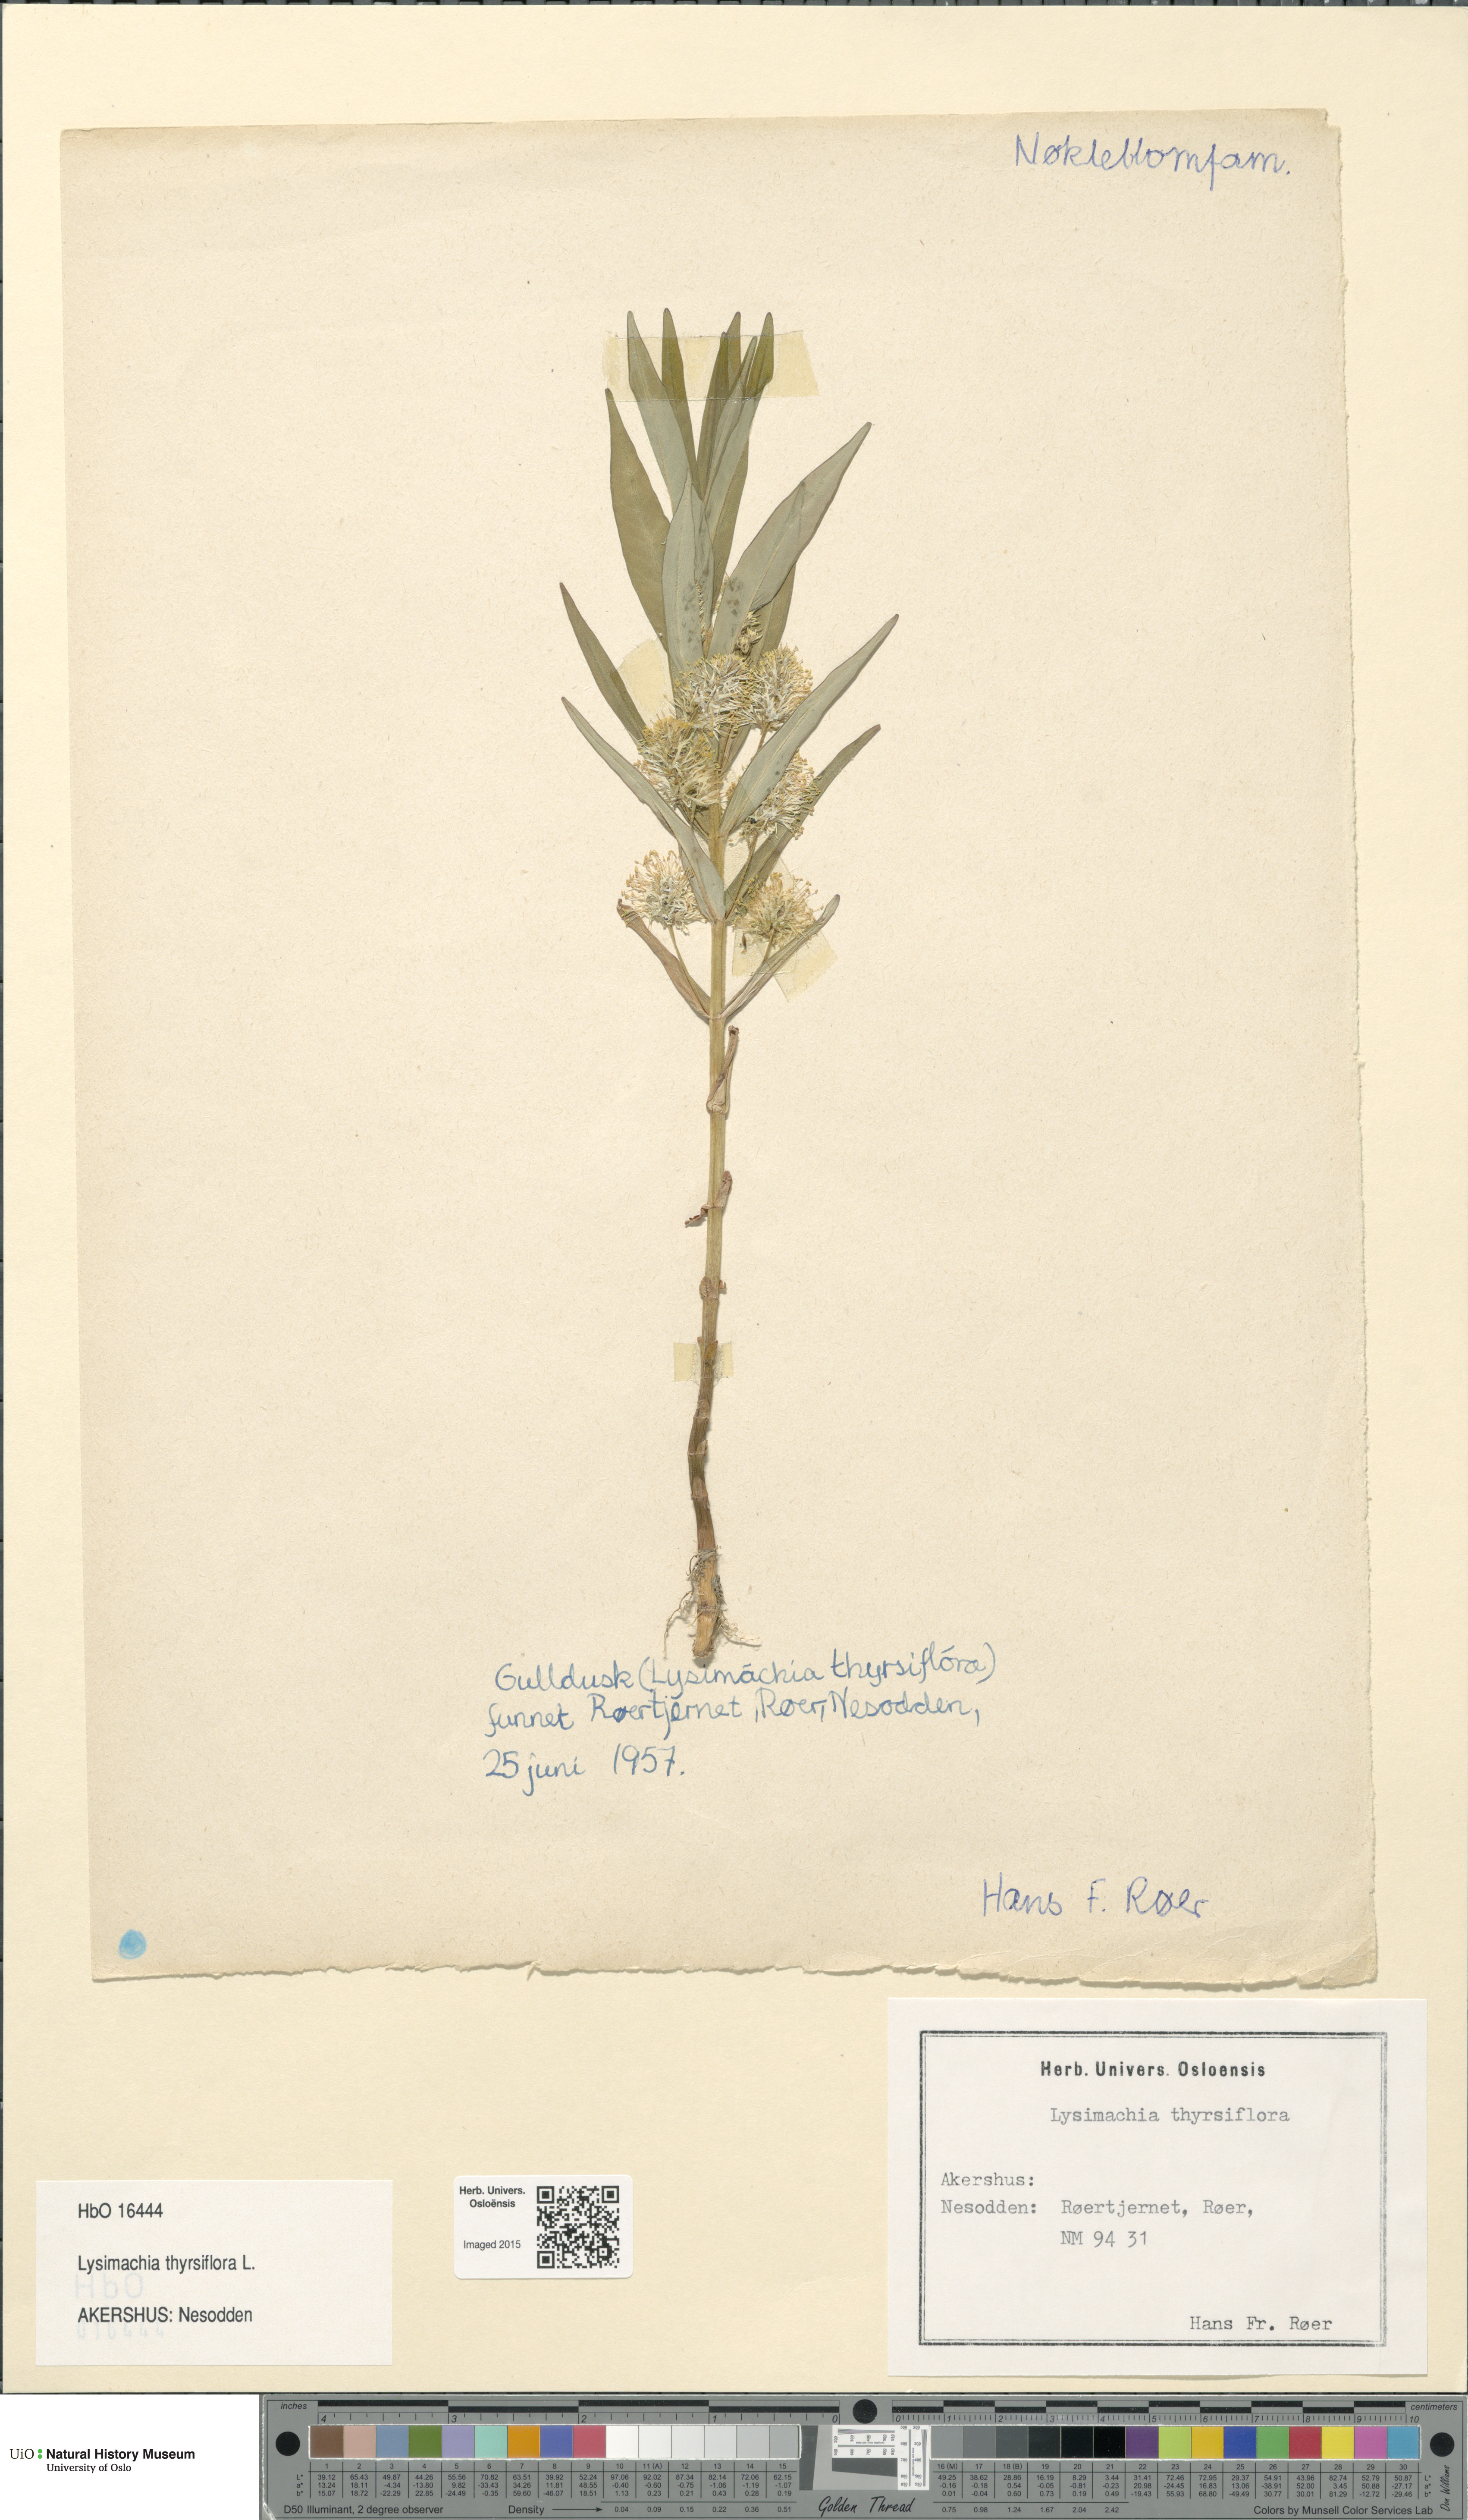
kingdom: Plantae
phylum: Tracheophyta
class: Magnoliopsida
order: Ericales
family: Primulaceae
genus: Lysimachia
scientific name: Lysimachia thyrsiflora
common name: Tufted loosestrife
